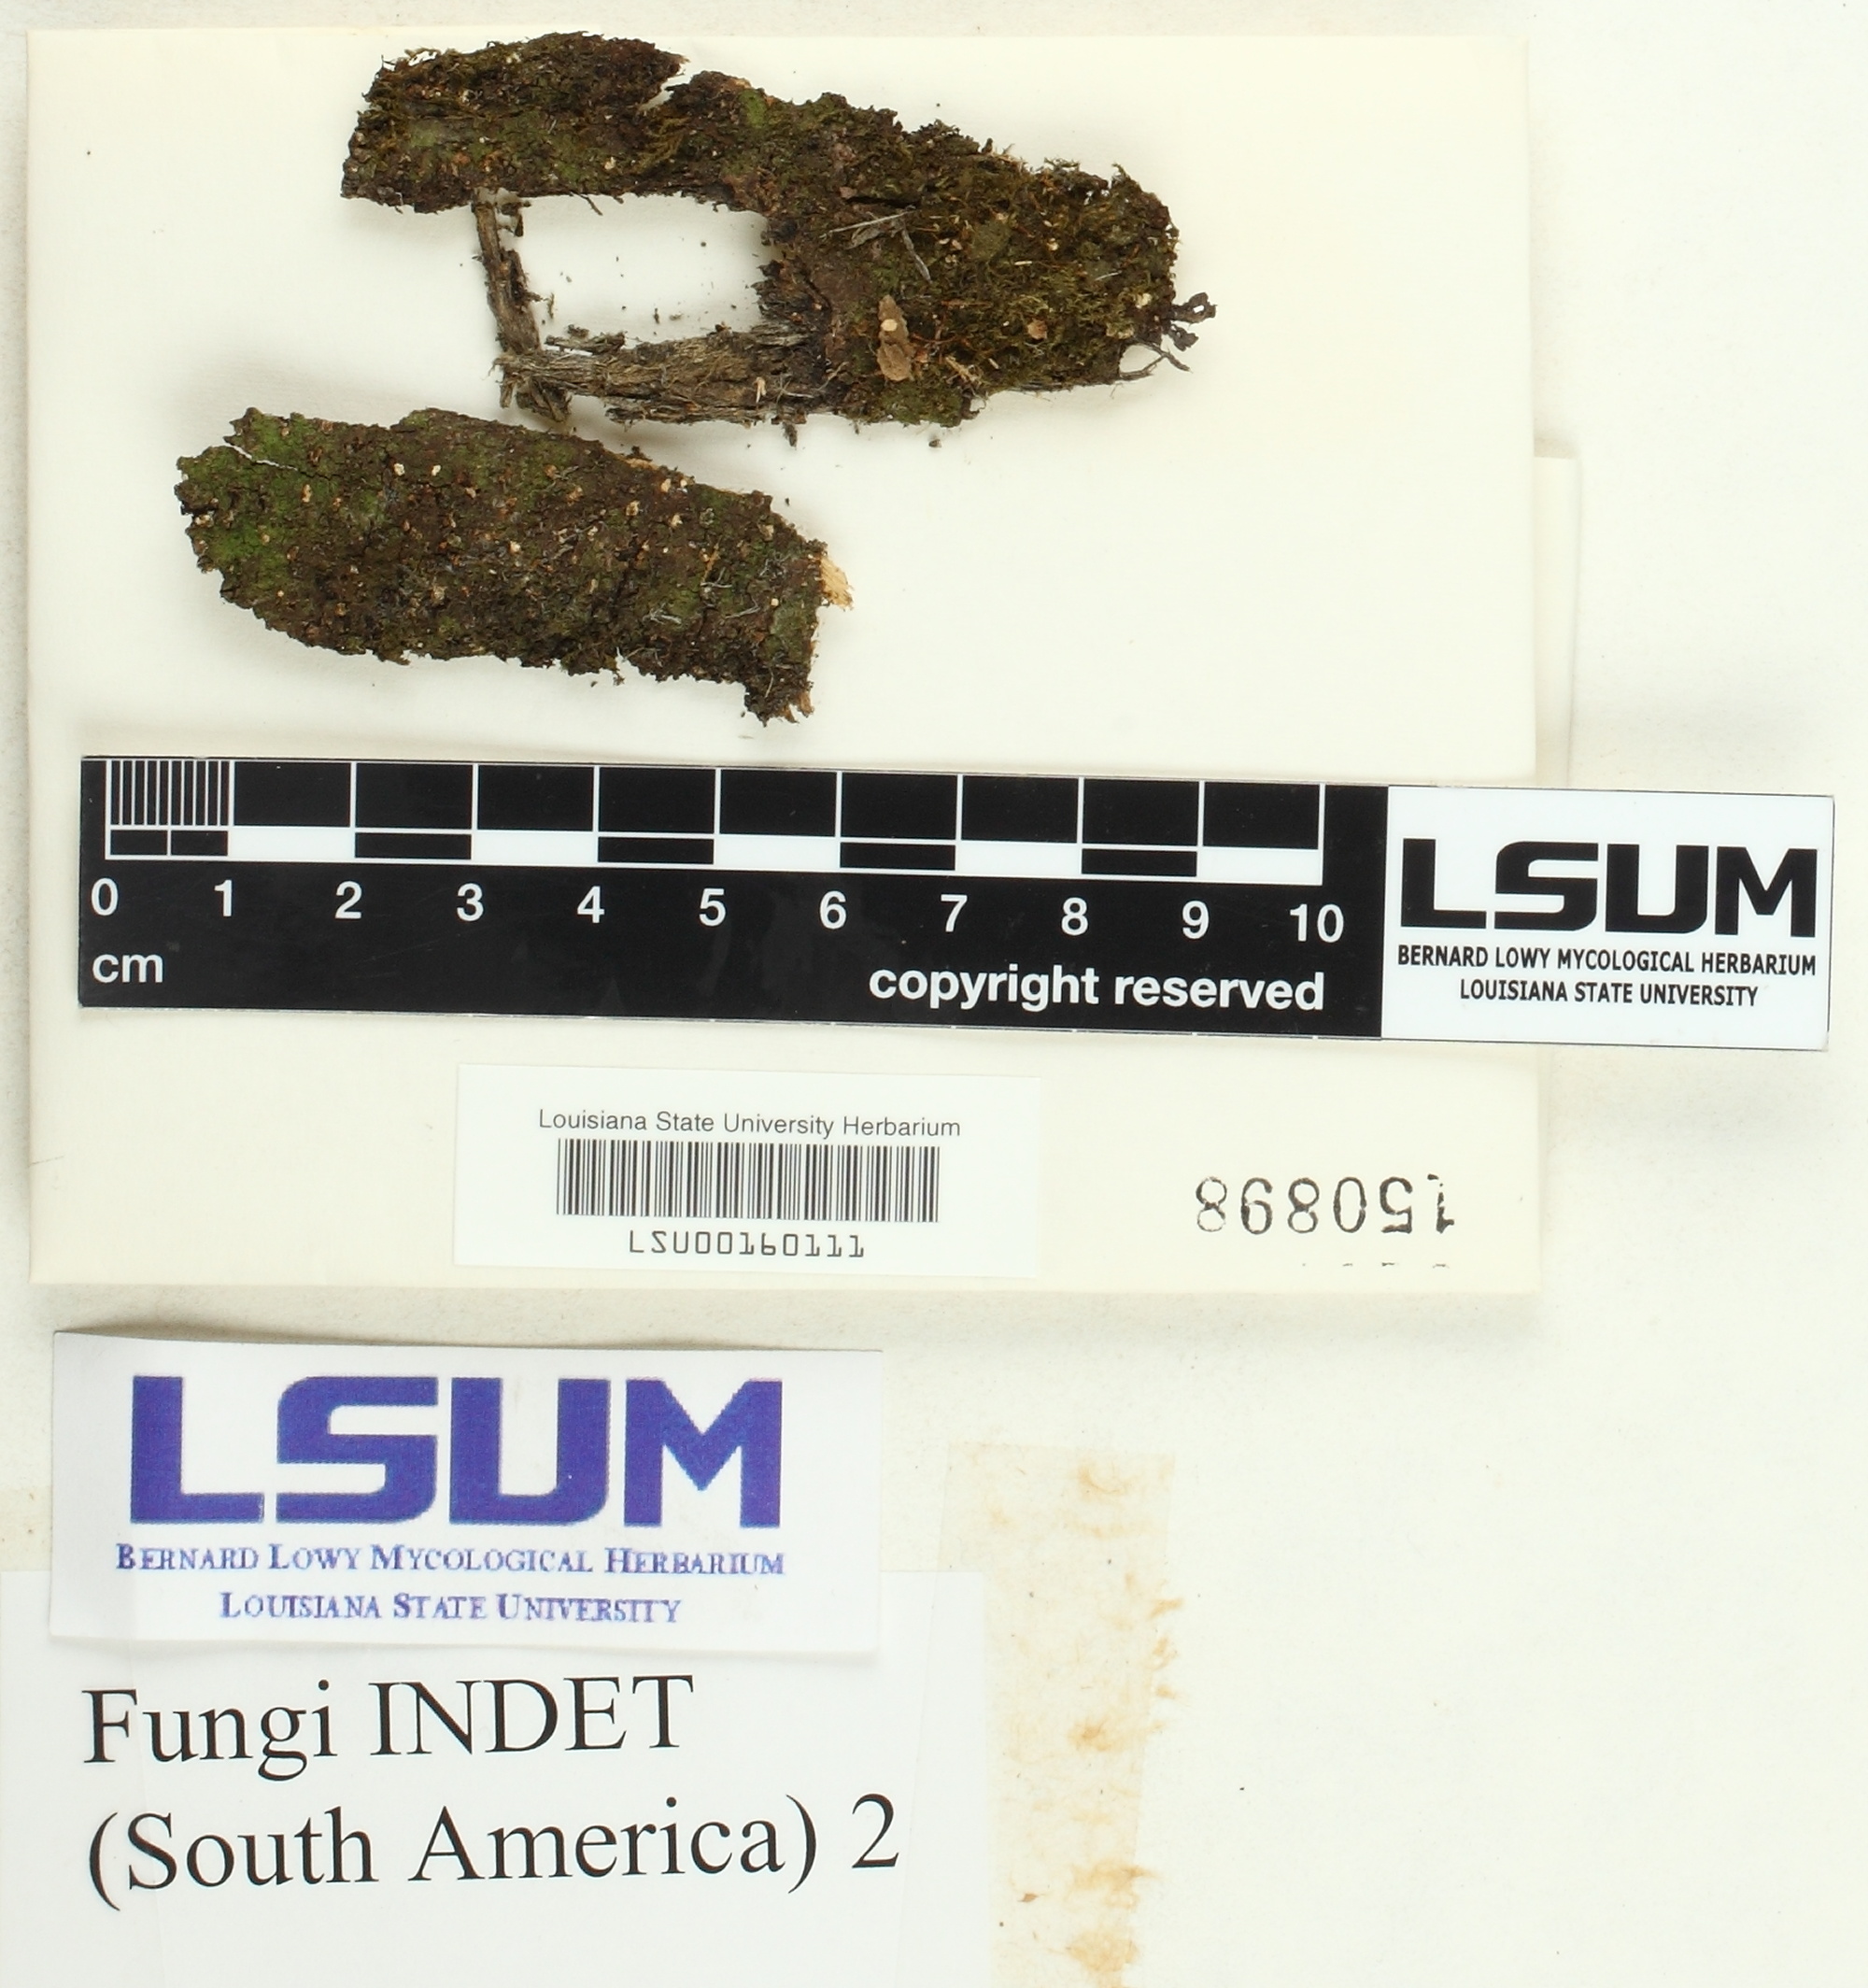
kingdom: Fungi
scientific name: Fungi
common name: Fungi
